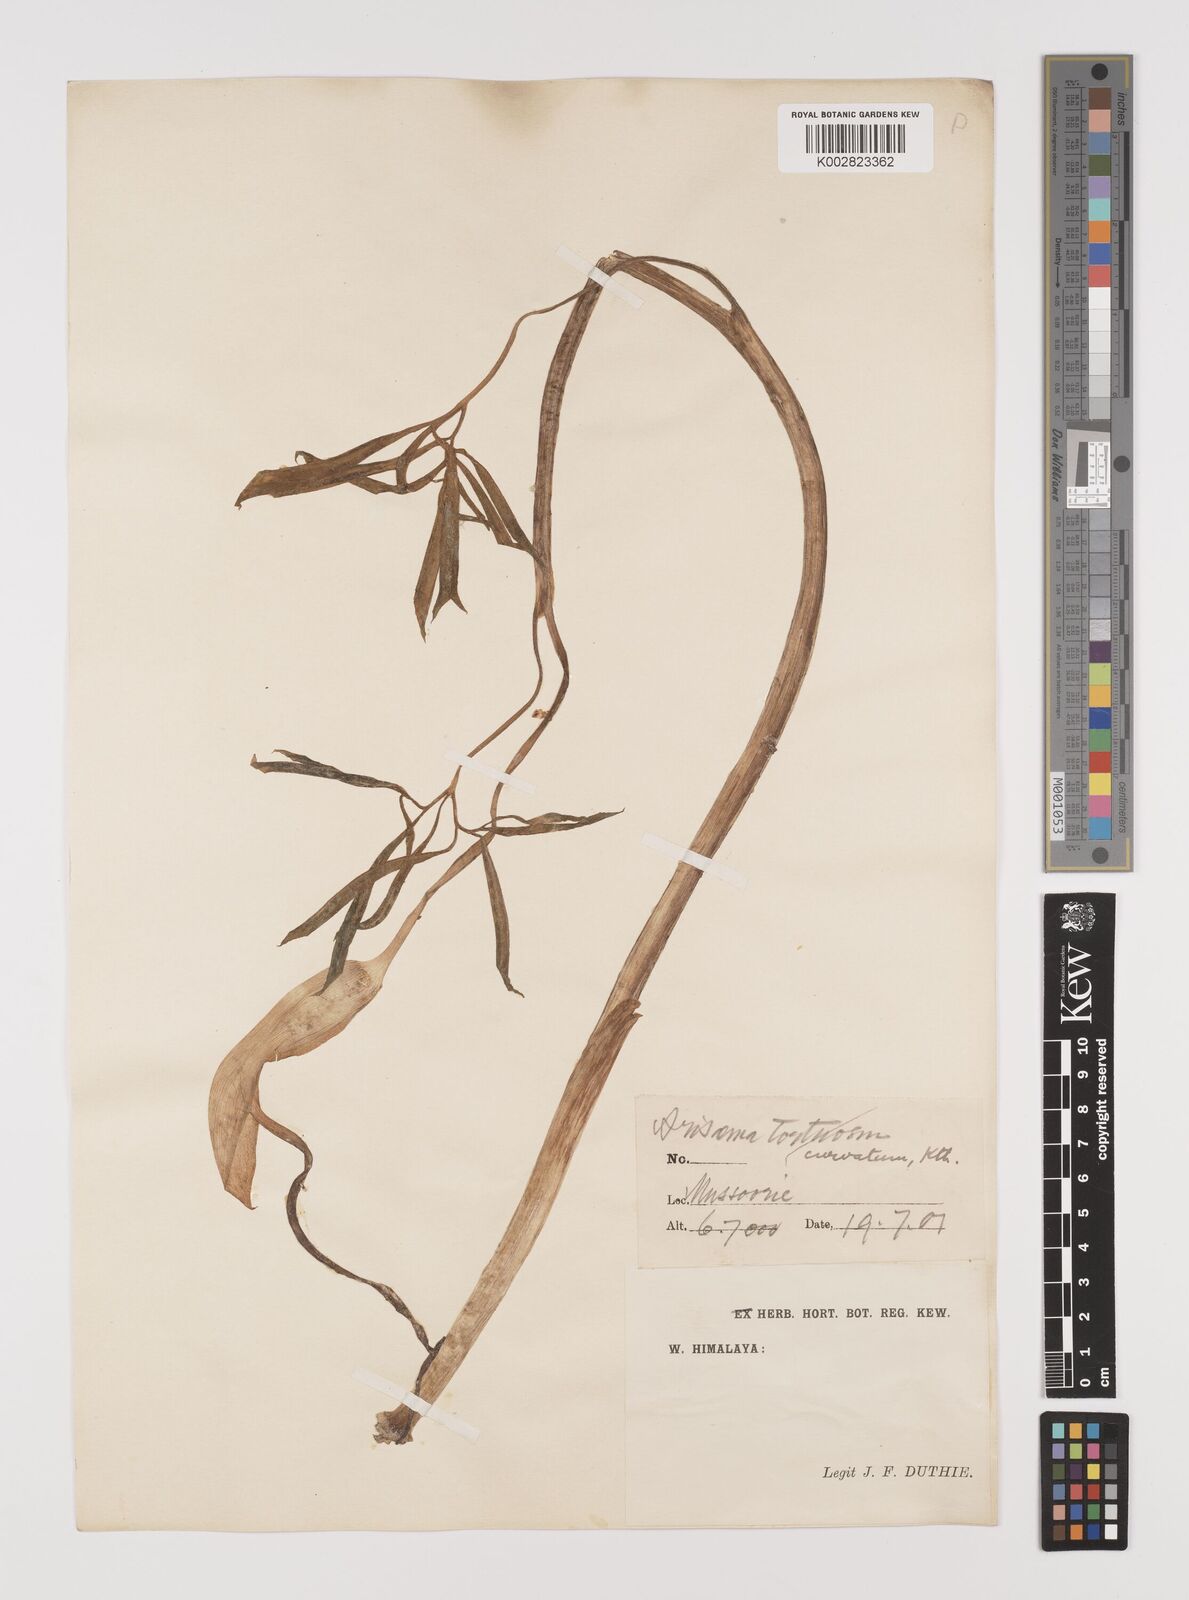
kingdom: Plantae
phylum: Tracheophyta
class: Liliopsida
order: Alismatales
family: Araceae
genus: Arisaema
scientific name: Arisaema tortuosum
